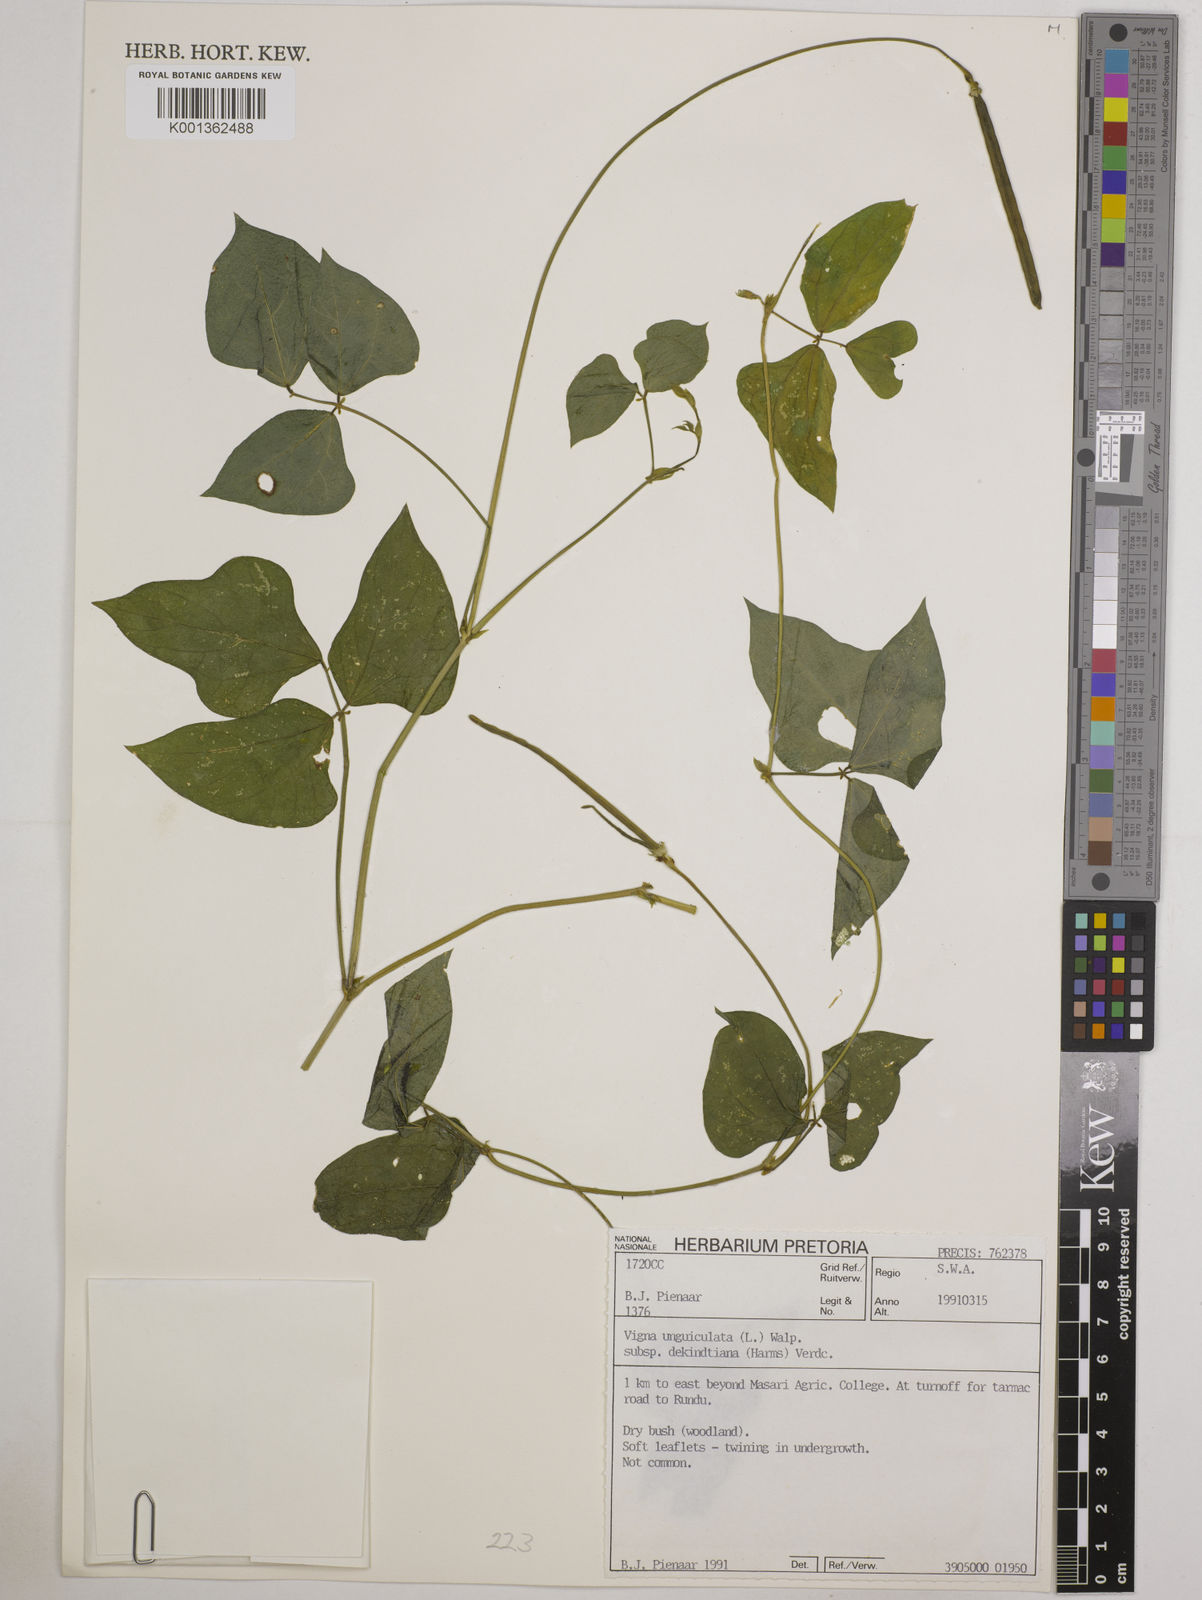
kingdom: Plantae
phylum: Tracheophyta
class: Magnoliopsida
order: Fabales
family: Fabaceae
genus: Vigna
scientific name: Vigna
